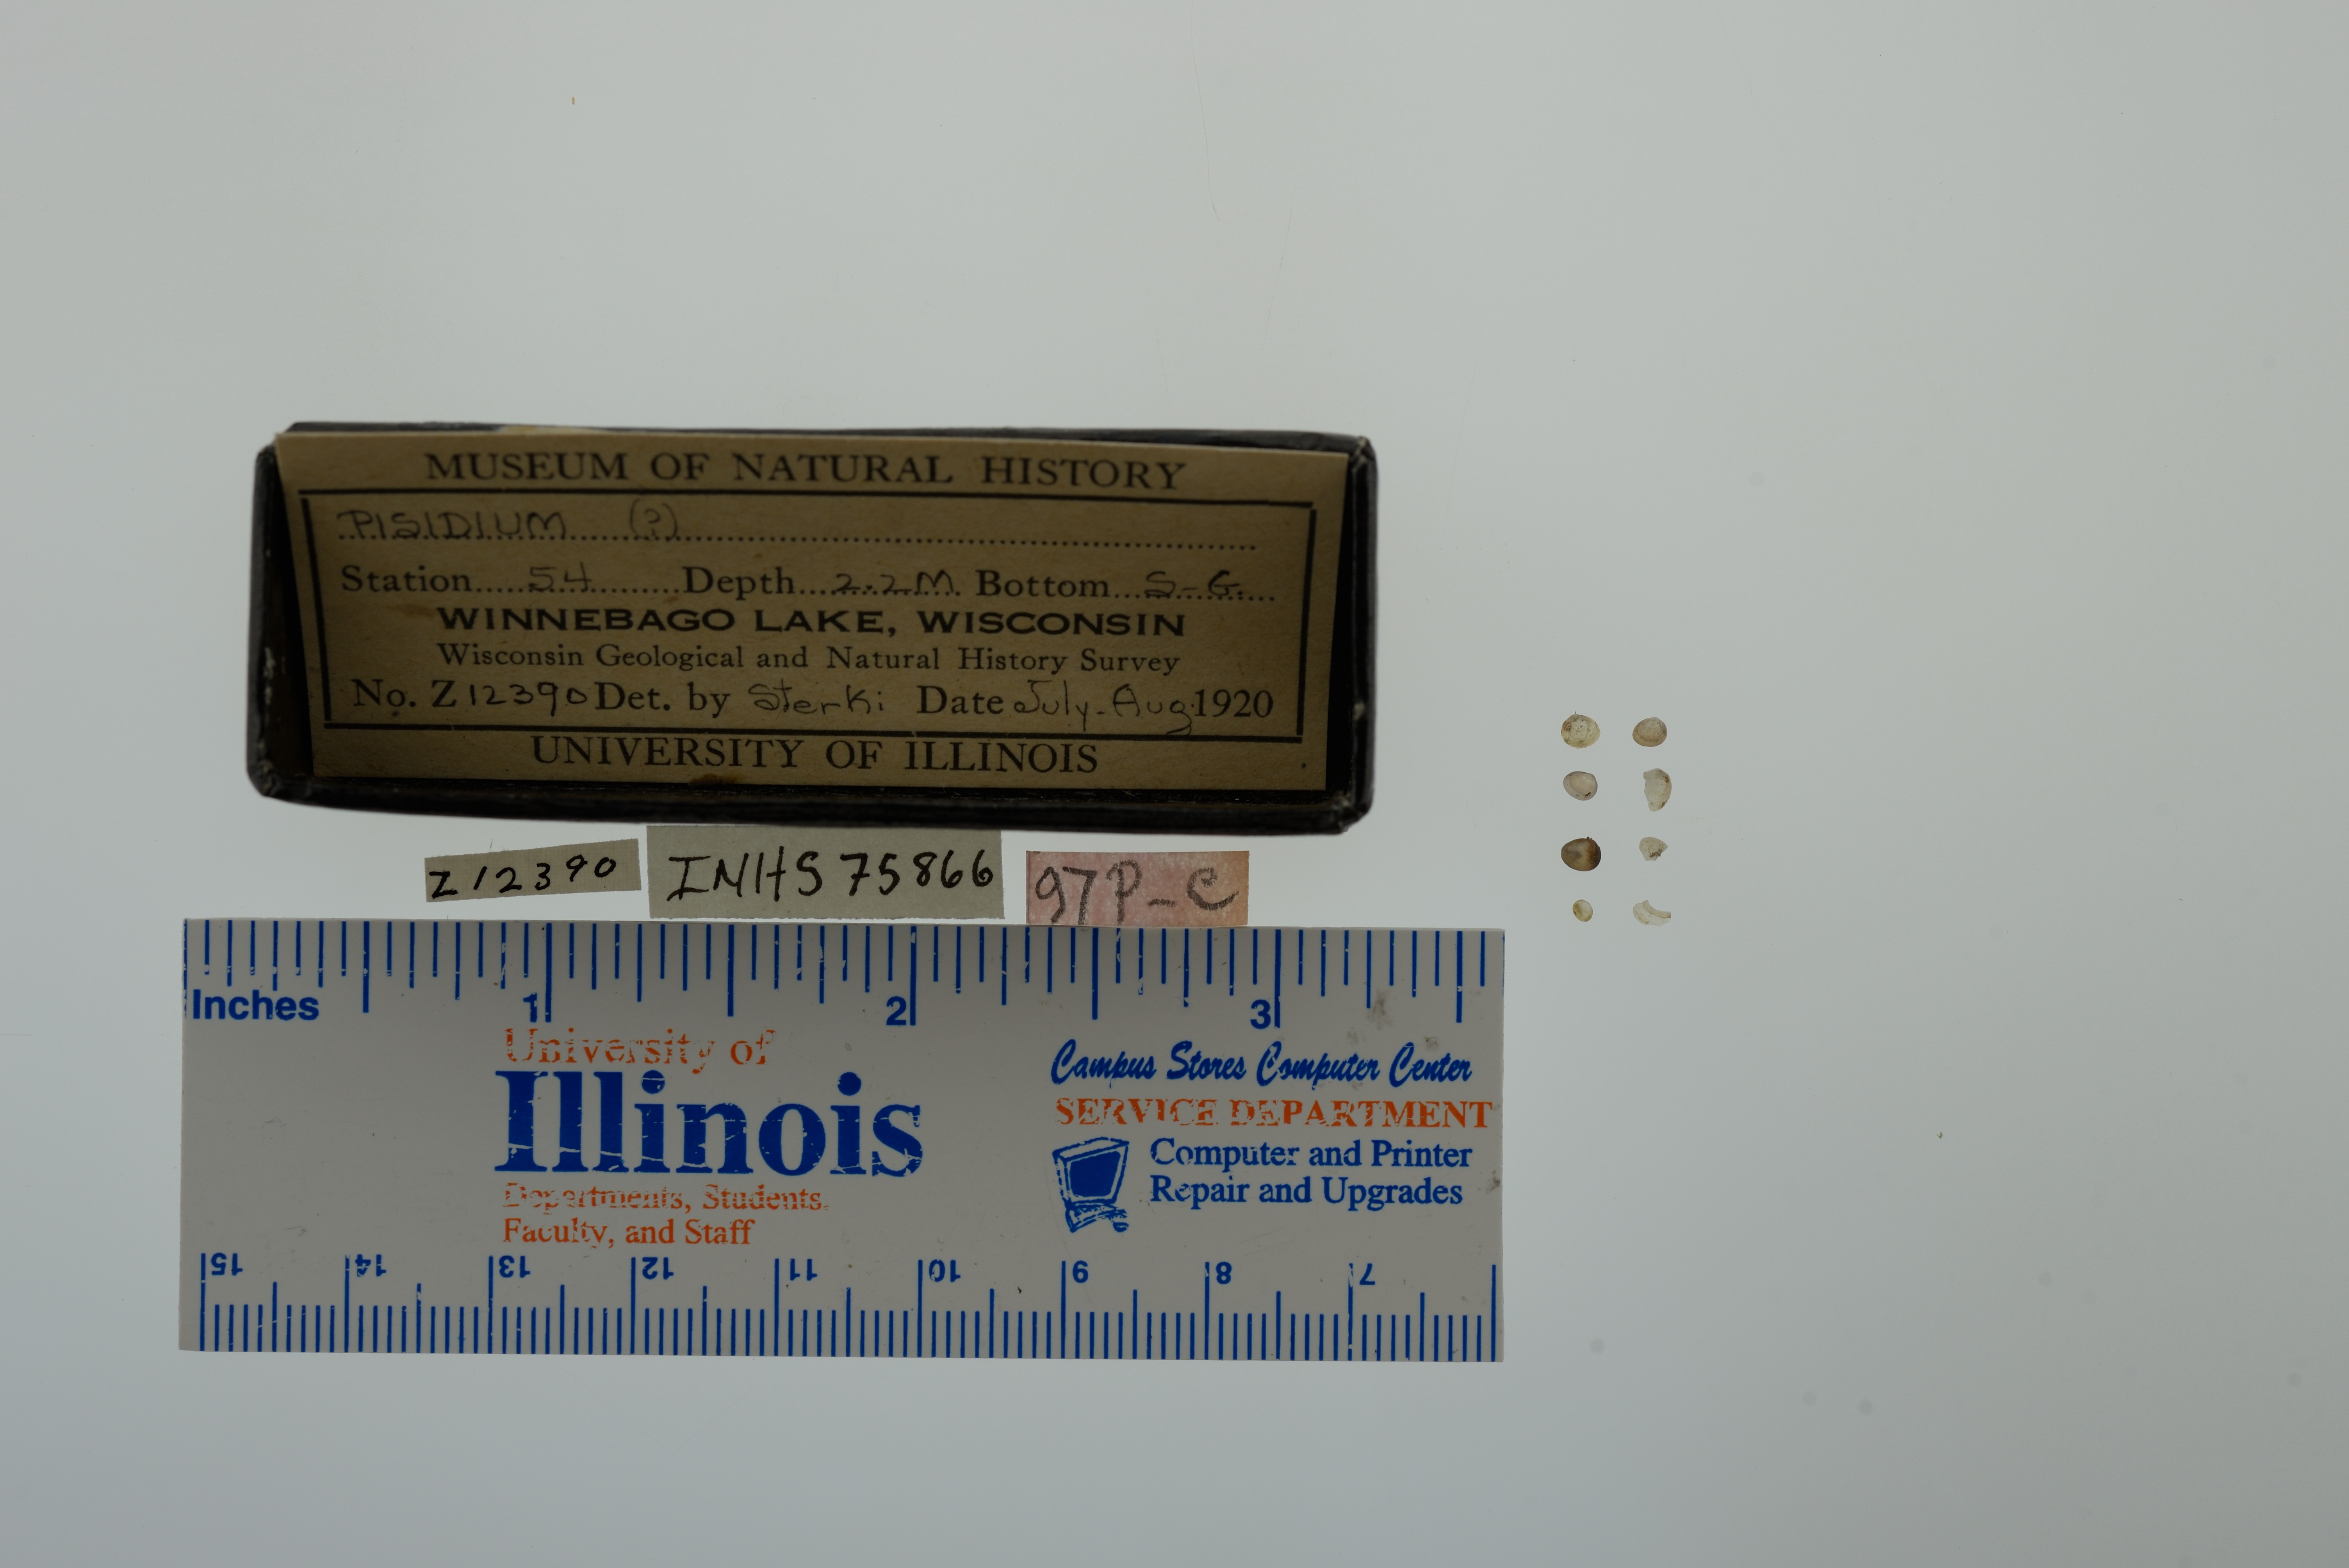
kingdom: Animalia
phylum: Mollusca
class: Bivalvia
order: Sphaeriida
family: Sphaeriidae
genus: Pisidium
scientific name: Pisidium
